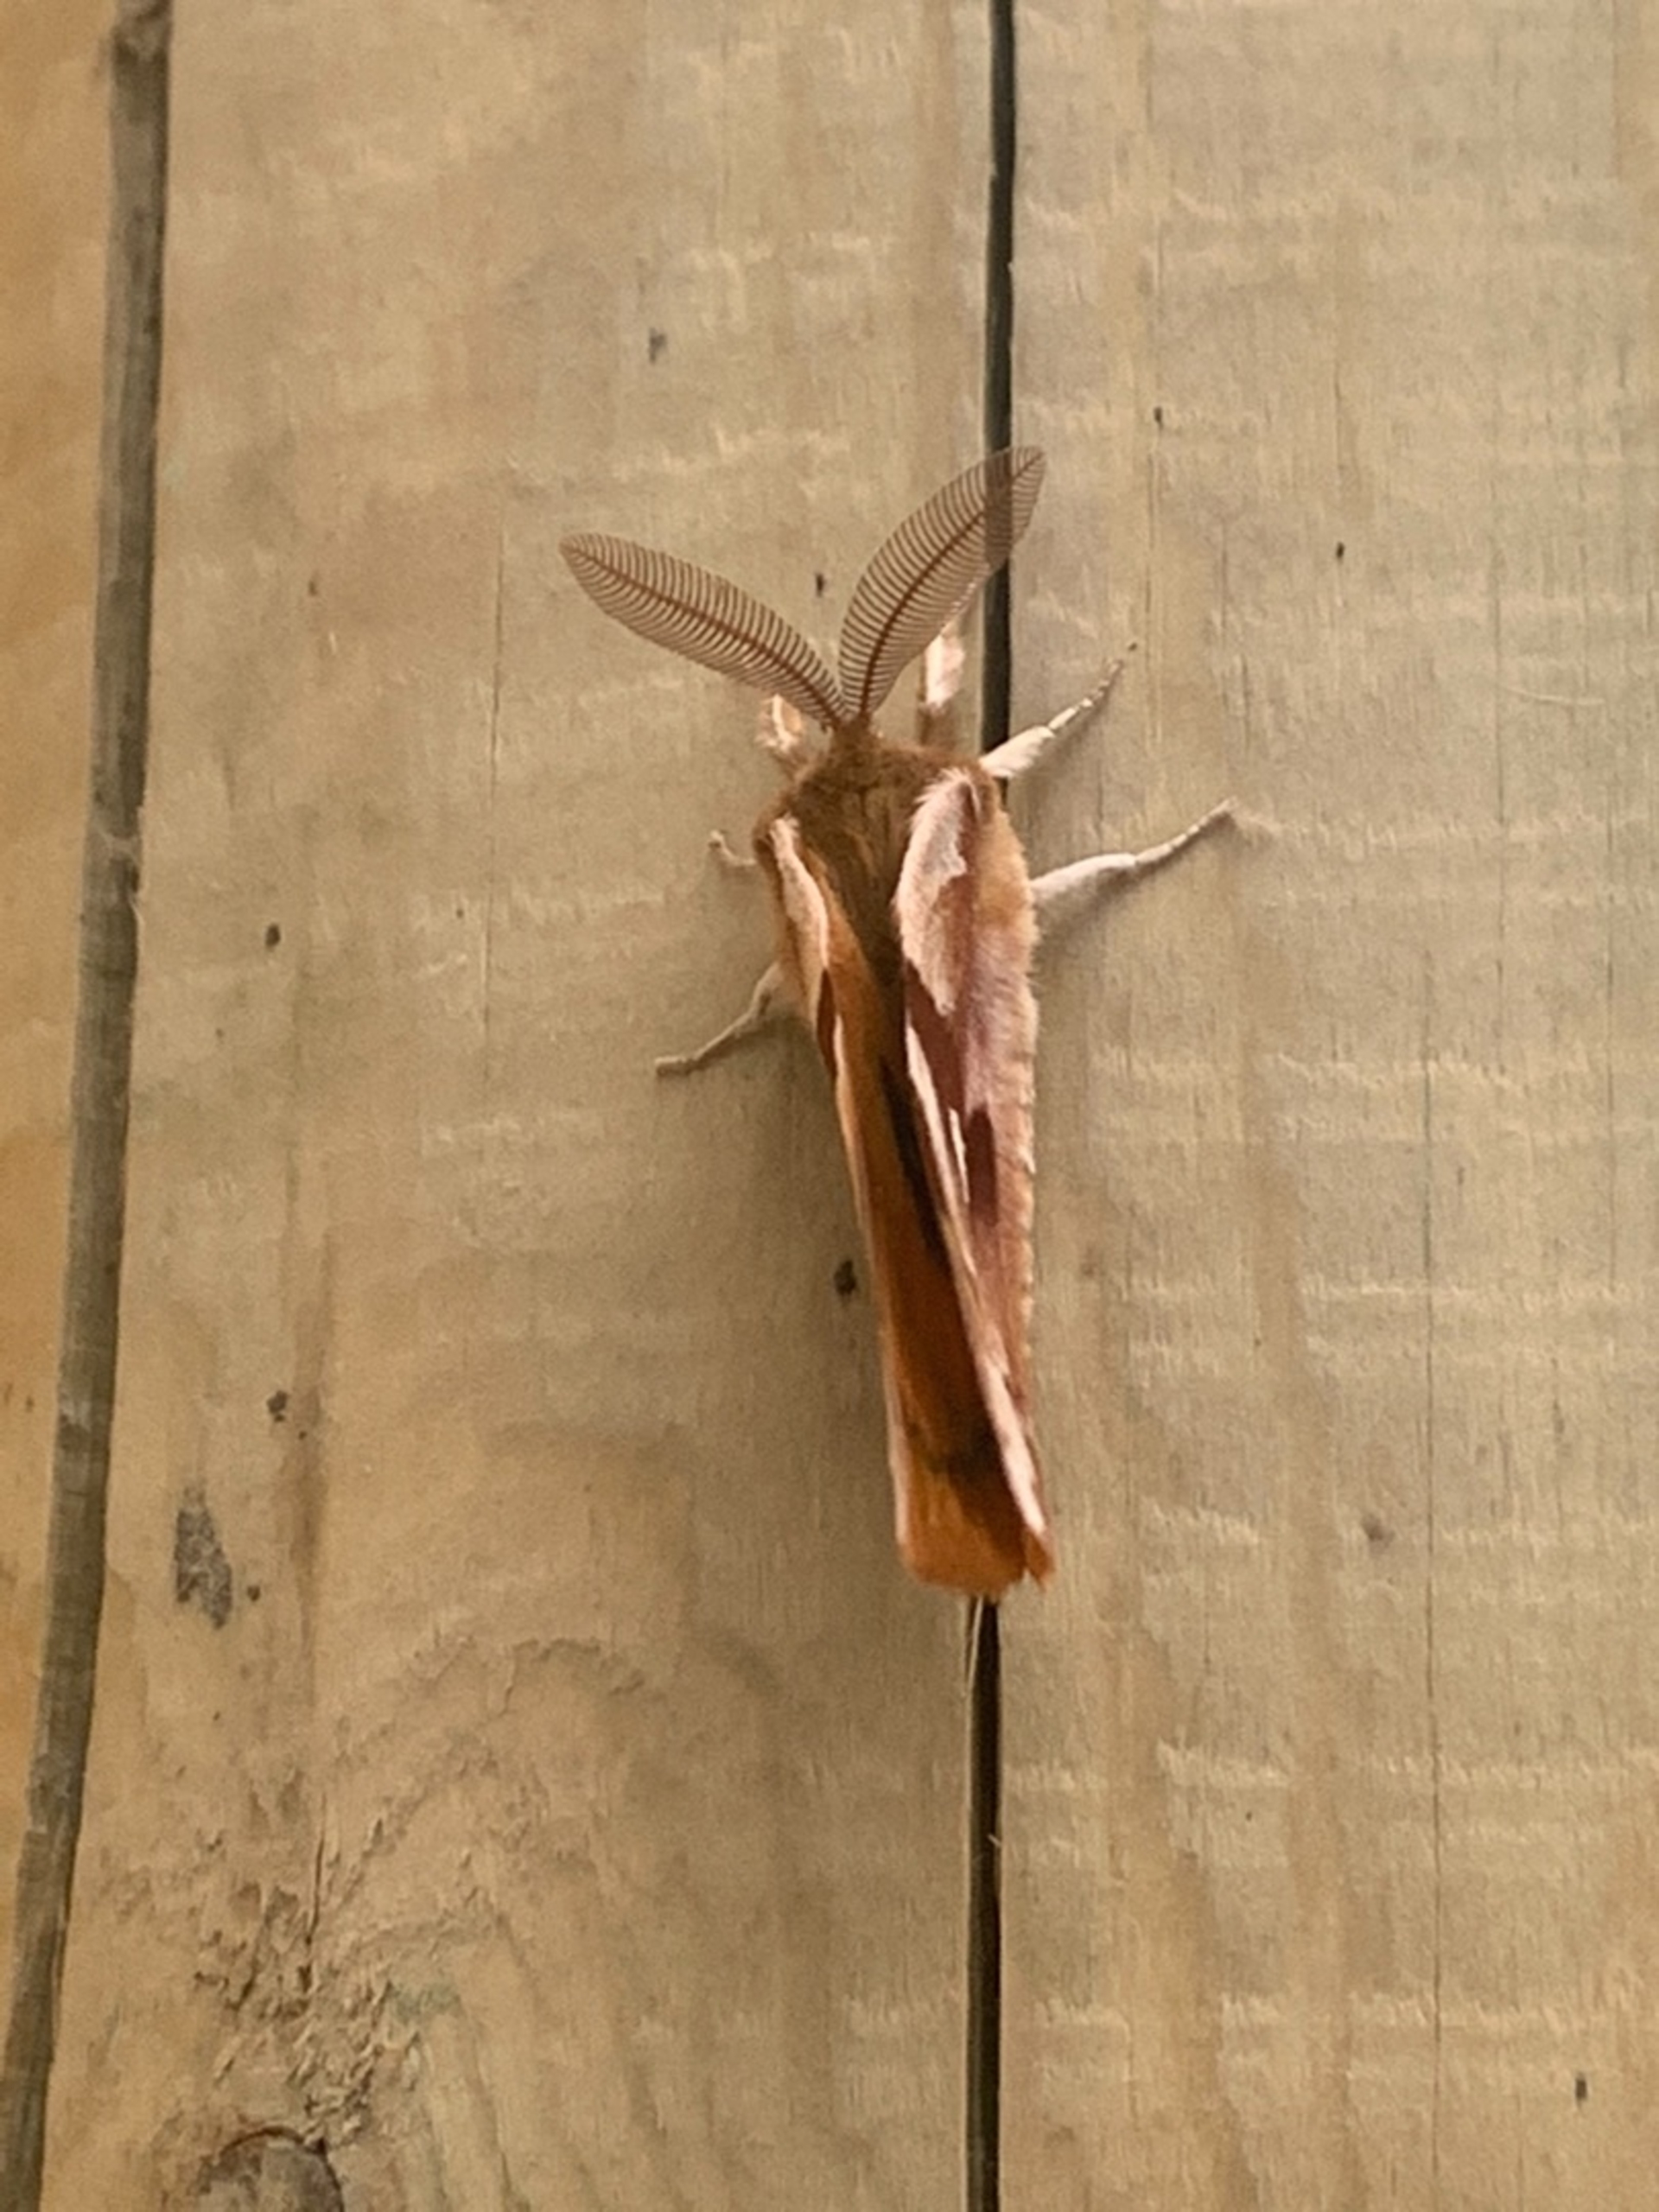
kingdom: Animalia
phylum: Arthropoda
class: Insecta
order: Lepidoptera
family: Saturniidae
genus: Aglia
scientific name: Aglia tau
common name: Sømplet
